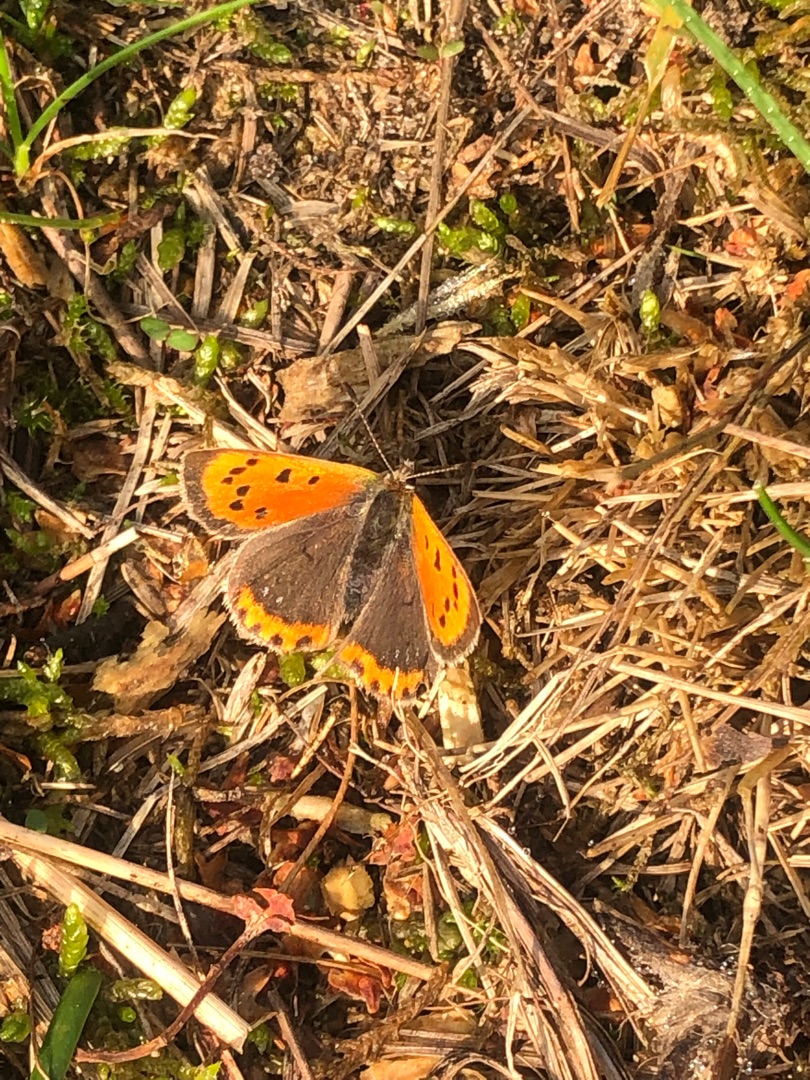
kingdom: Animalia
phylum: Arthropoda
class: Insecta
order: Lepidoptera
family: Lycaenidae
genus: Lycaena
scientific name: Lycaena phlaeas
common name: Lille ildfugl
